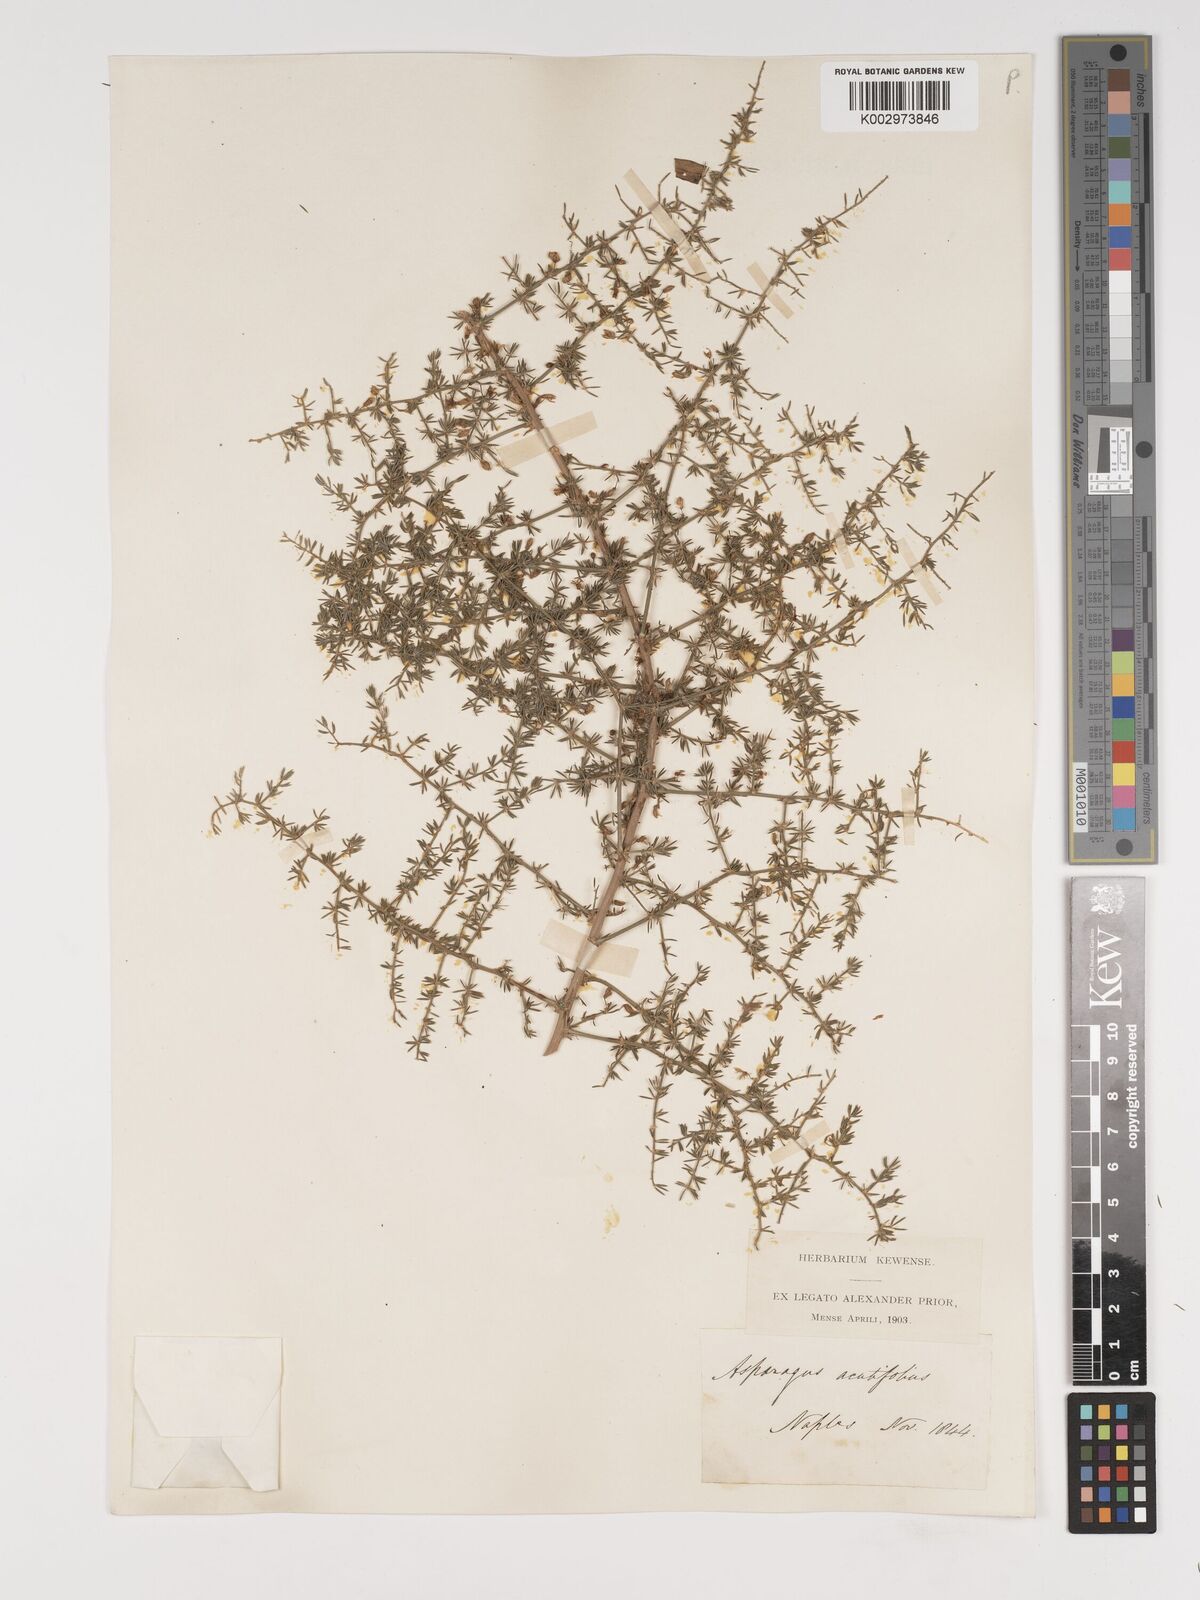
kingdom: Plantae
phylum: Tracheophyta
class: Liliopsida
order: Asparagales
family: Asparagaceae
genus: Asparagus
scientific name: Asparagus acutifolius
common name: Wild asparagus
